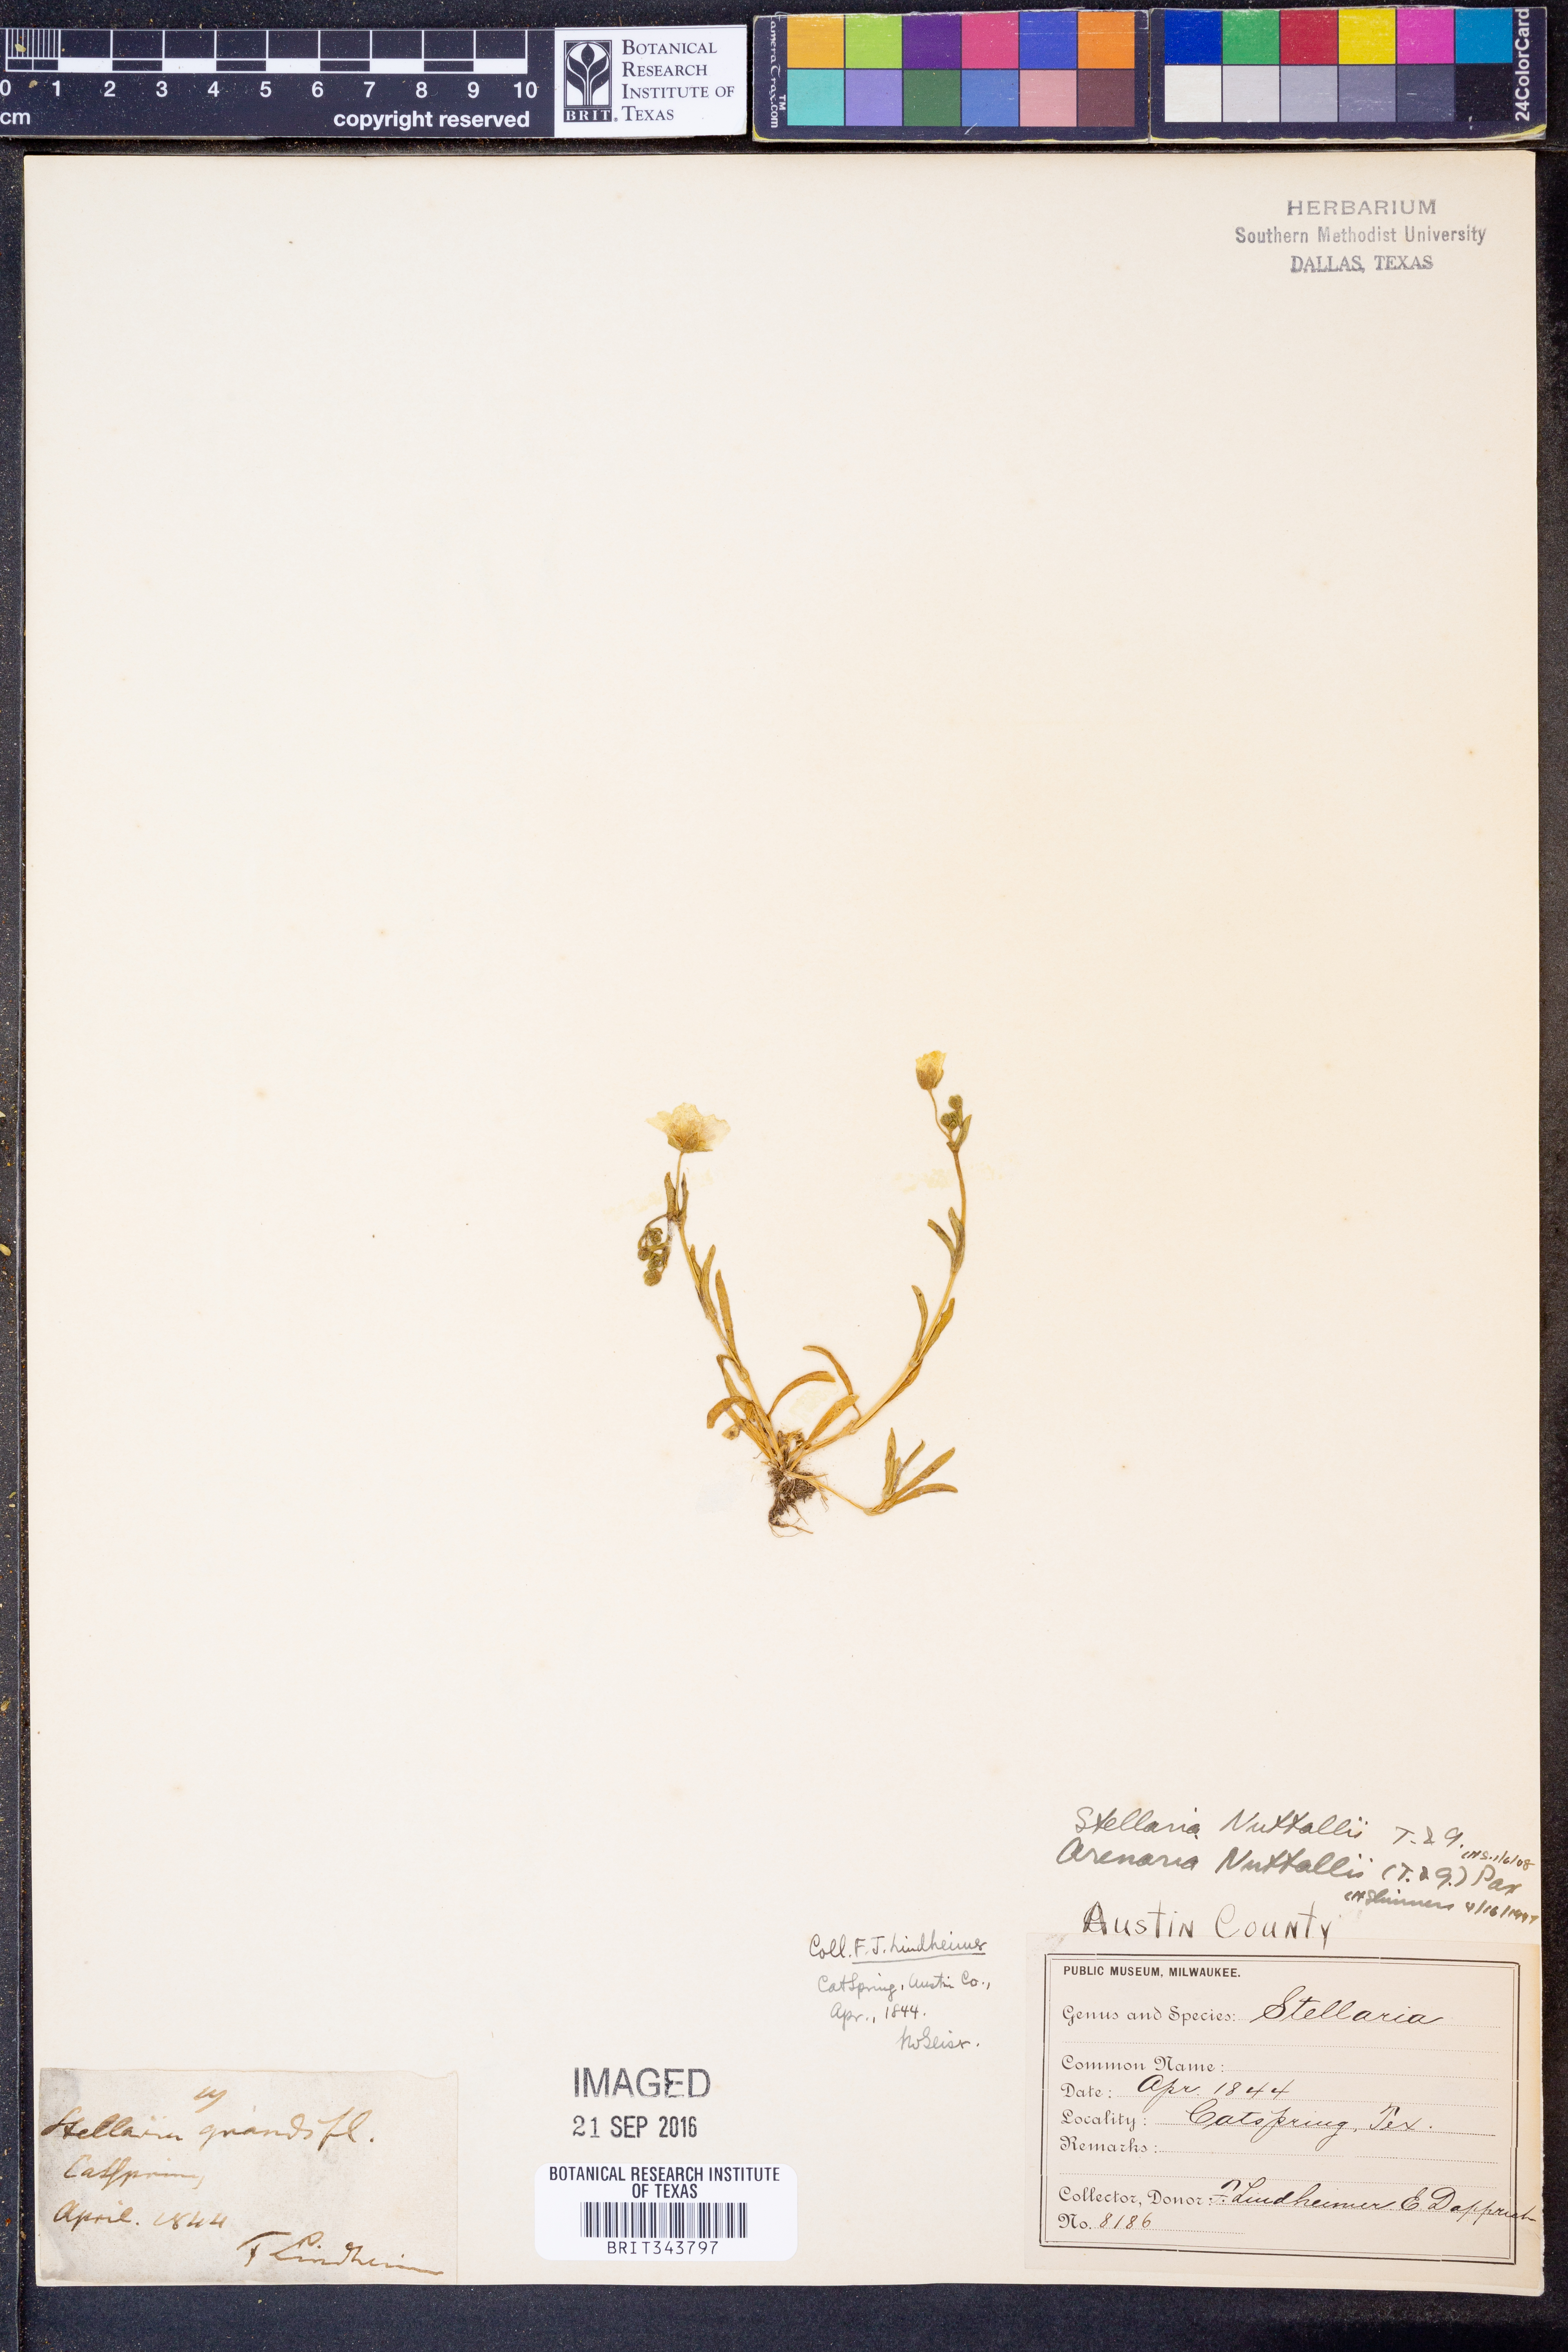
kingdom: Plantae
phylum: Tracheophyta
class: Magnoliopsida
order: Caryophyllales
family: Caryophyllaceae
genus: Geocarpon
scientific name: Geocarpon nuttallii
